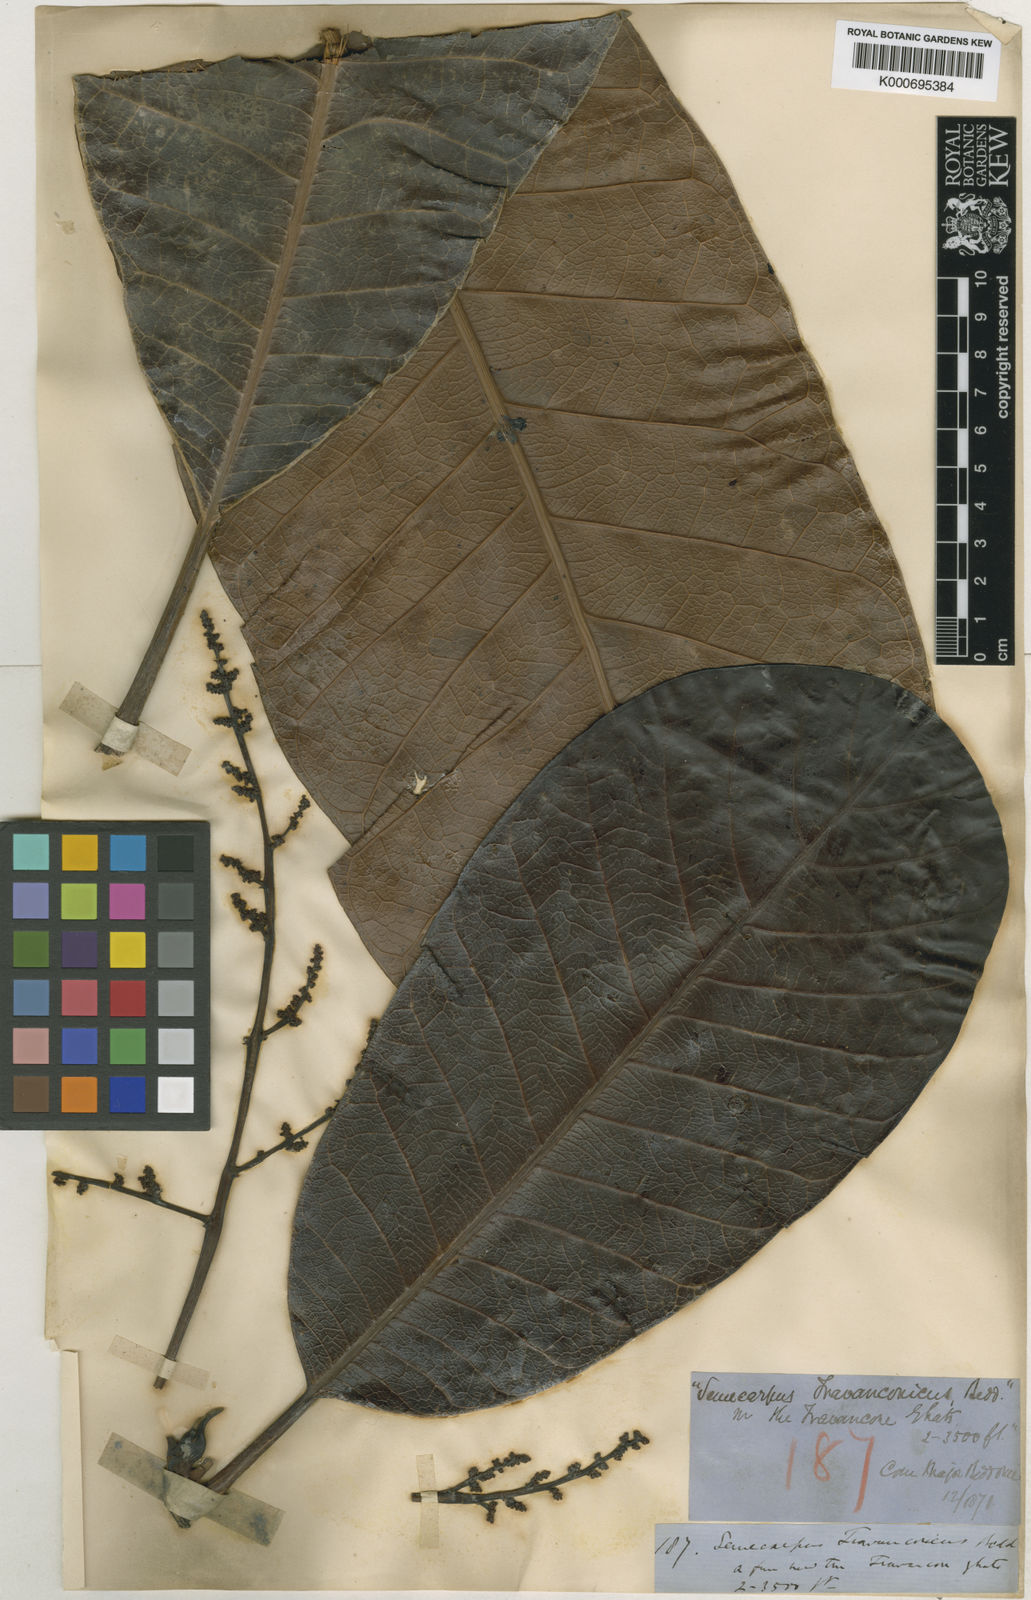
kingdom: Plantae
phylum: Tracheophyta
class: Magnoliopsida
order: Sapindales
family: Anacardiaceae
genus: Semecarpus
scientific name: Semecarpus travancoricus
